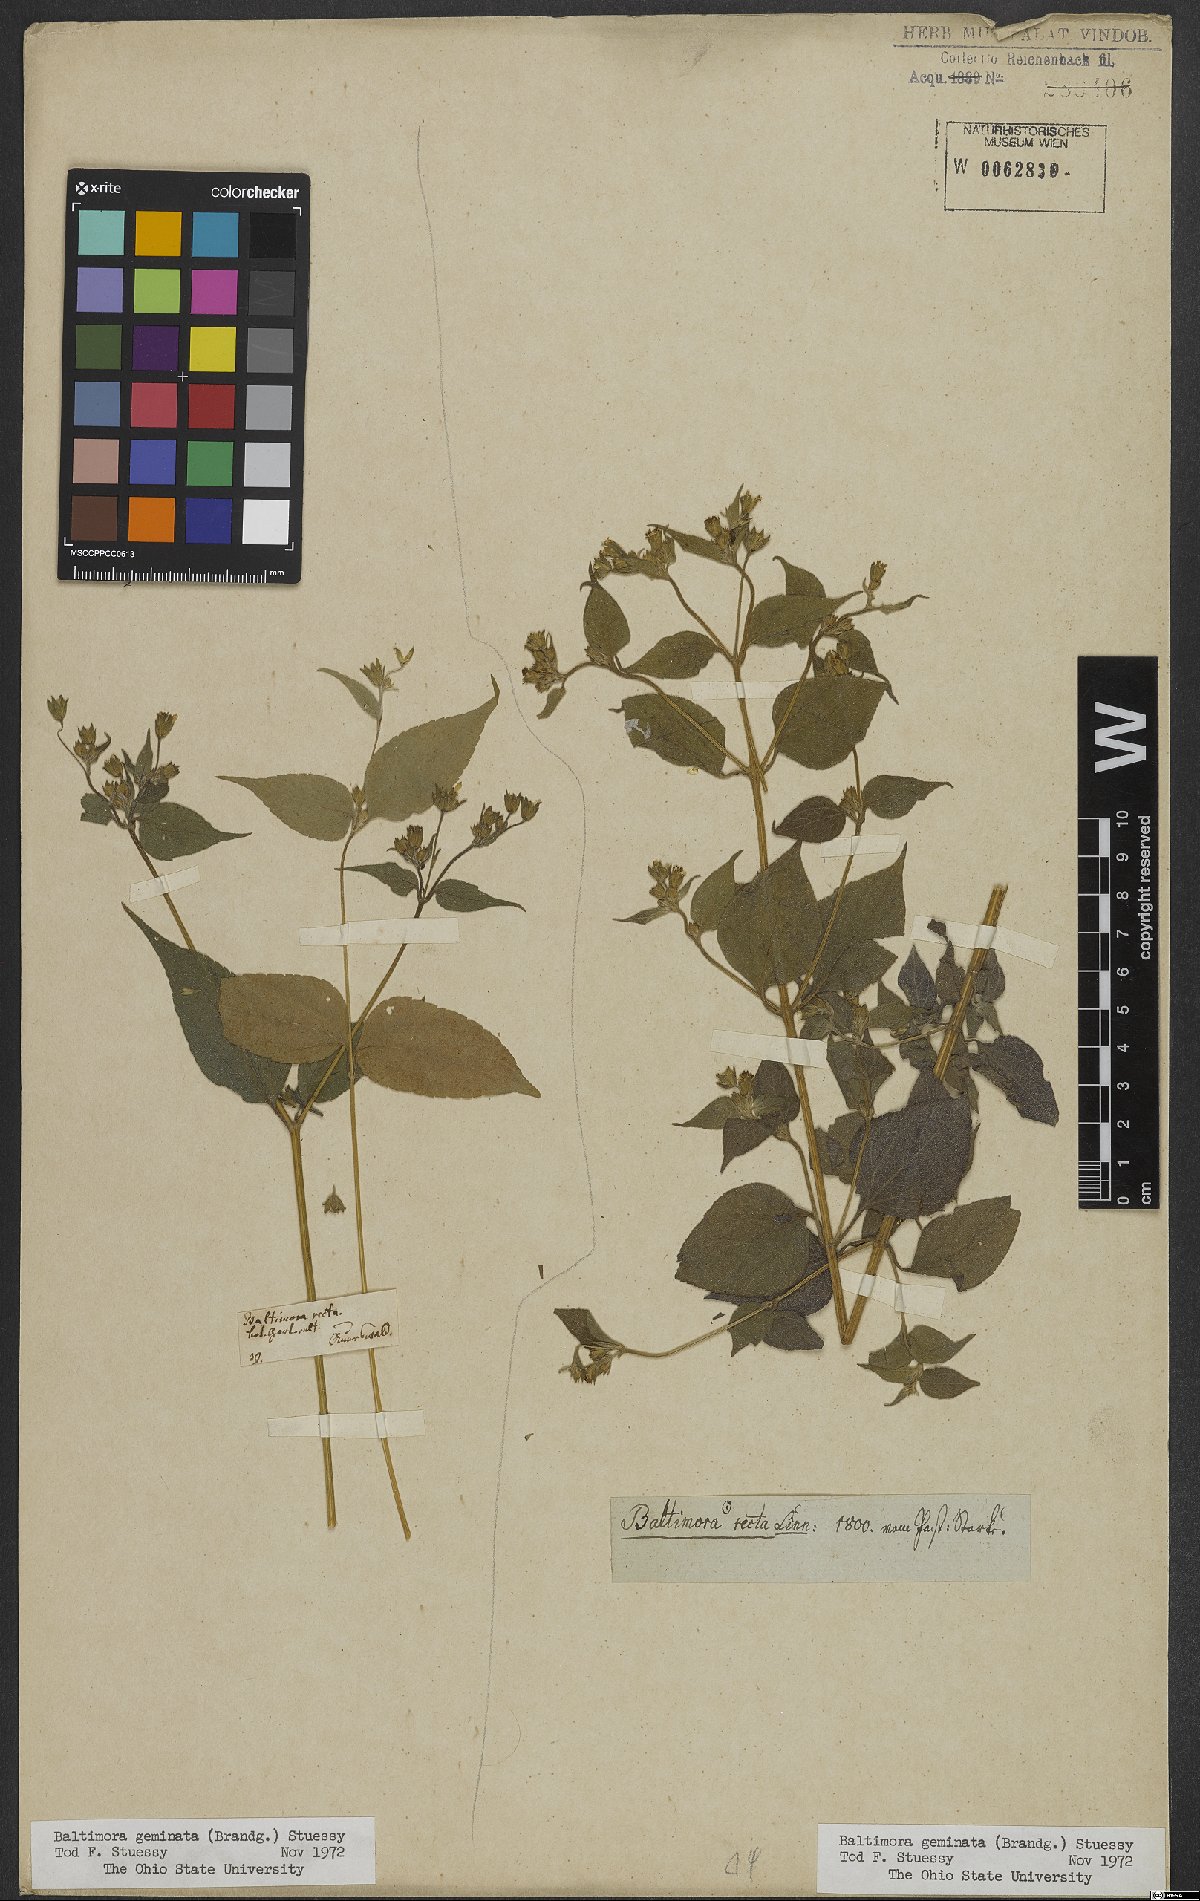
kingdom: Plantae
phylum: Tracheophyta
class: Magnoliopsida
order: Asterales
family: Asteraceae
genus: Baltimora
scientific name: Baltimora geminata
